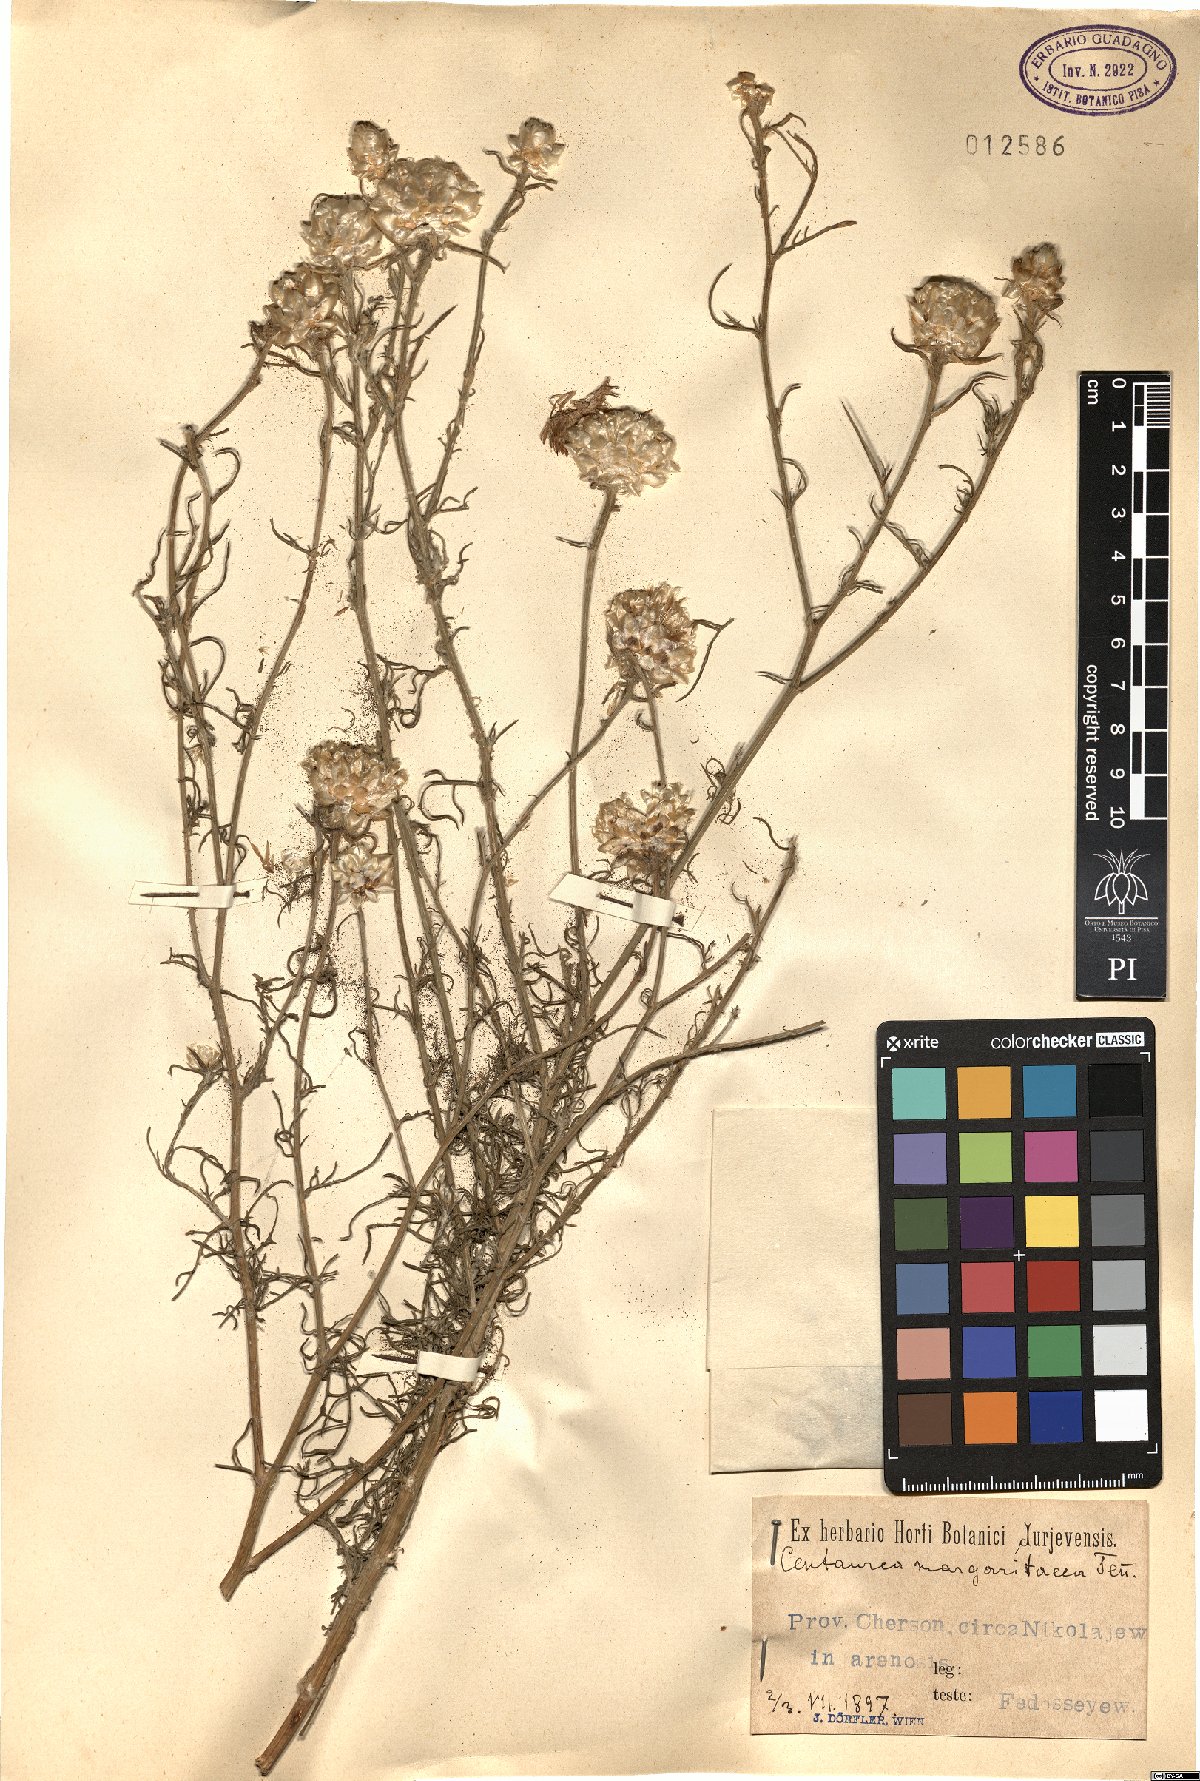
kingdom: Plantae
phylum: Tracheophyta
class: Magnoliopsida
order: Asterales
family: Asteraceae
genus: Centaurea
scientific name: Centaurea splendens
